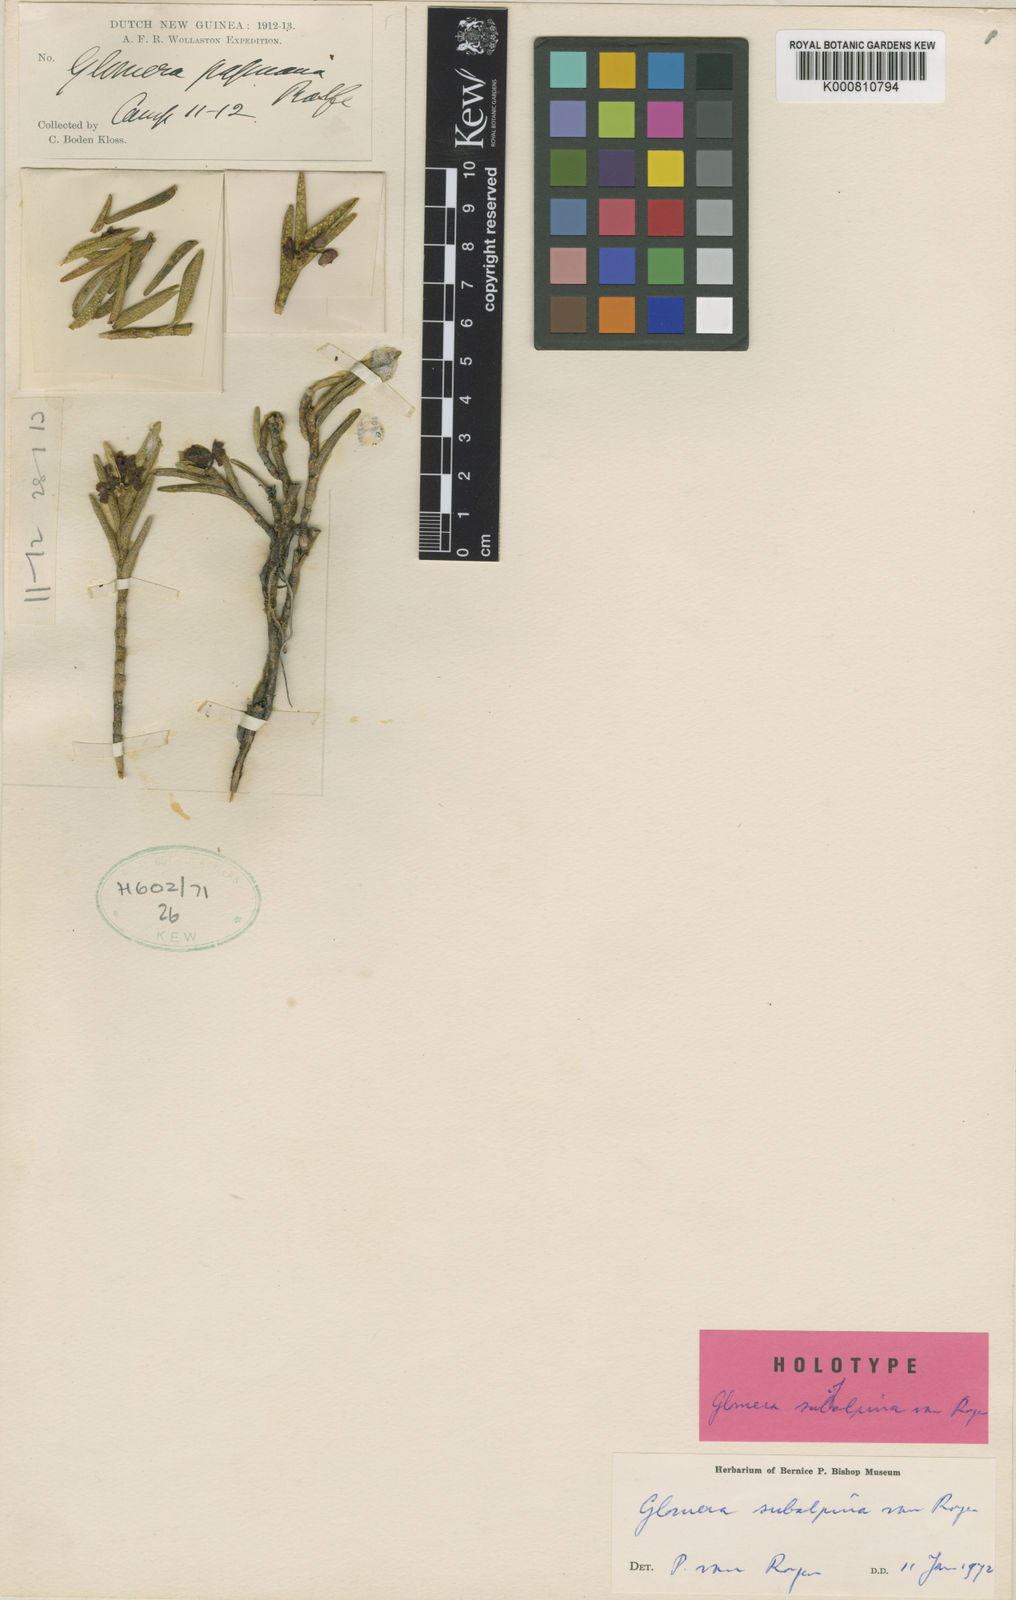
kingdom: Plantae
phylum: Tracheophyta
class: Liliopsida
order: Asparagales
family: Orchidaceae
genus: Glomera
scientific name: Glomera dekockii
